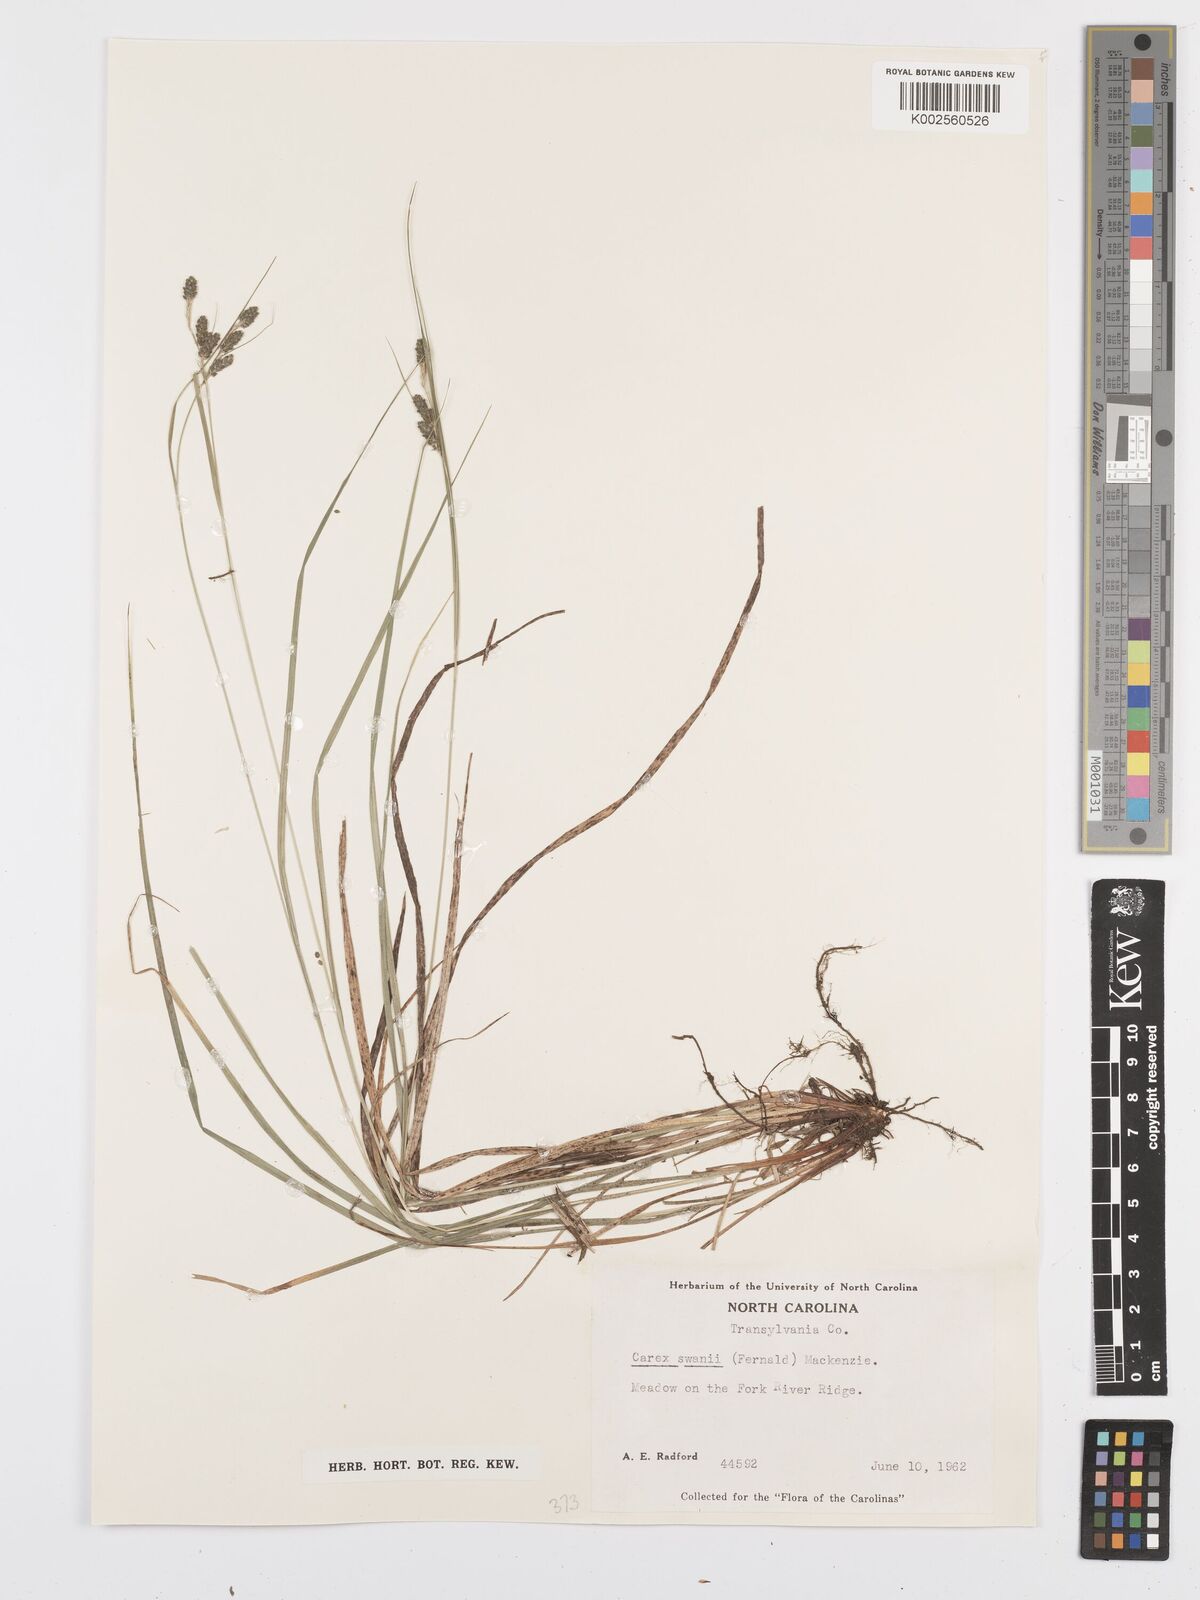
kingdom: Plantae
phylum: Tracheophyta
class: Liliopsida
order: Poales
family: Cyperaceae
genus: Carex
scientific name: Carex swanii
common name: Downy green sedge
